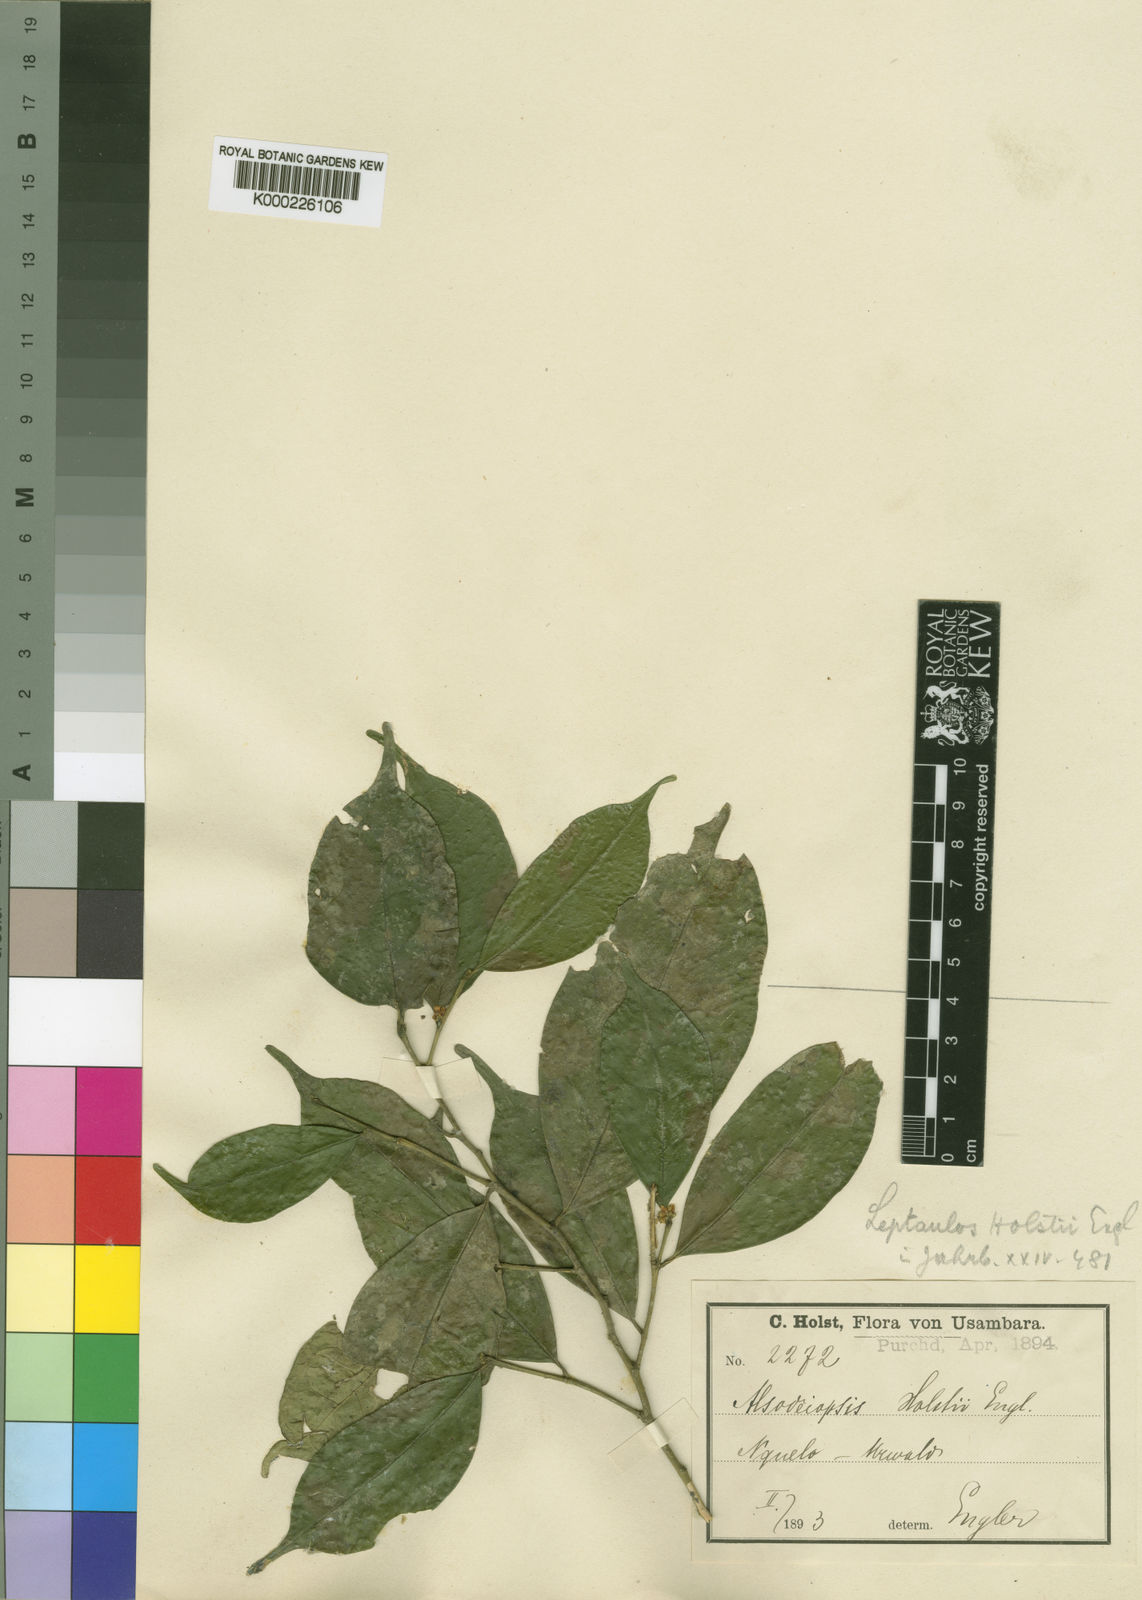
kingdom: Plantae
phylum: Tracheophyta
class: Magnoliopsida
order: Cardiopteridales
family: Cardiopteridaceae
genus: Leptaulus
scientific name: Leptaulus holstii
